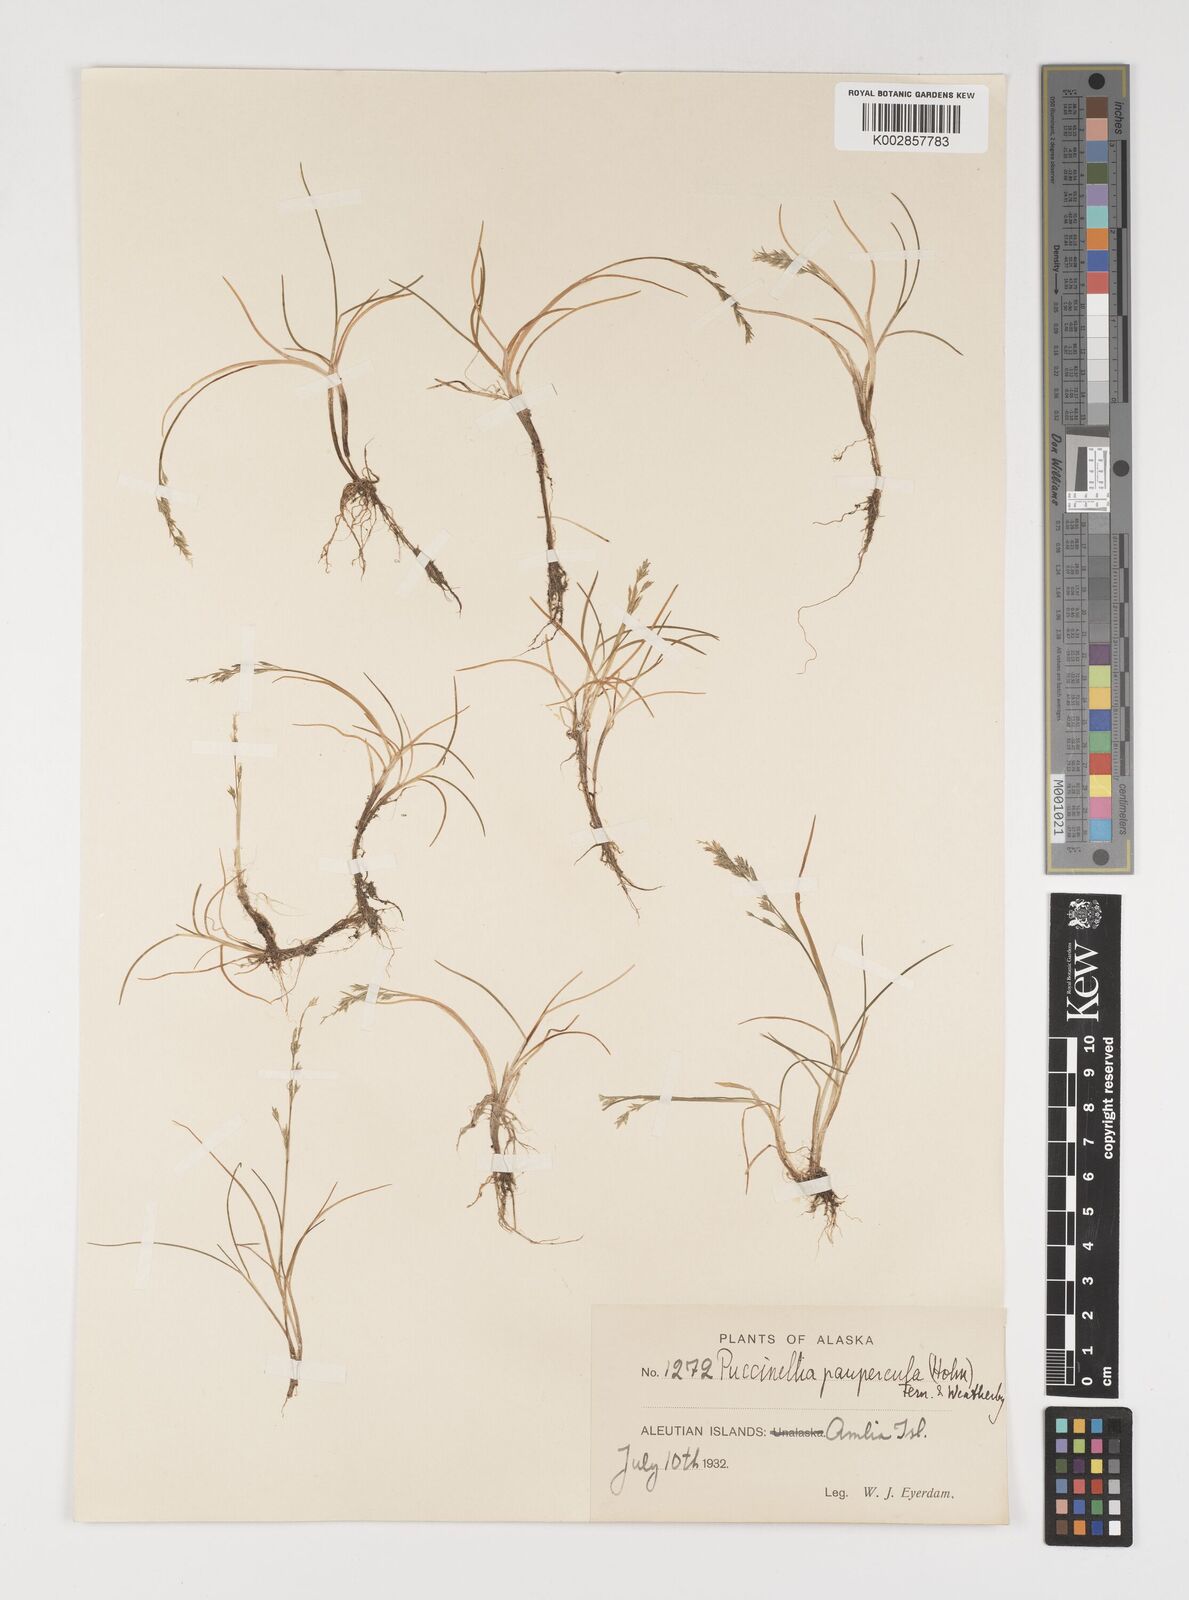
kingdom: Plantae
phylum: Tracheophyta
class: Liliopsida
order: Poales
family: Poaceae
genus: Puccinellia
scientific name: Puccinellia pumila
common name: Dwarf alkaligrass
